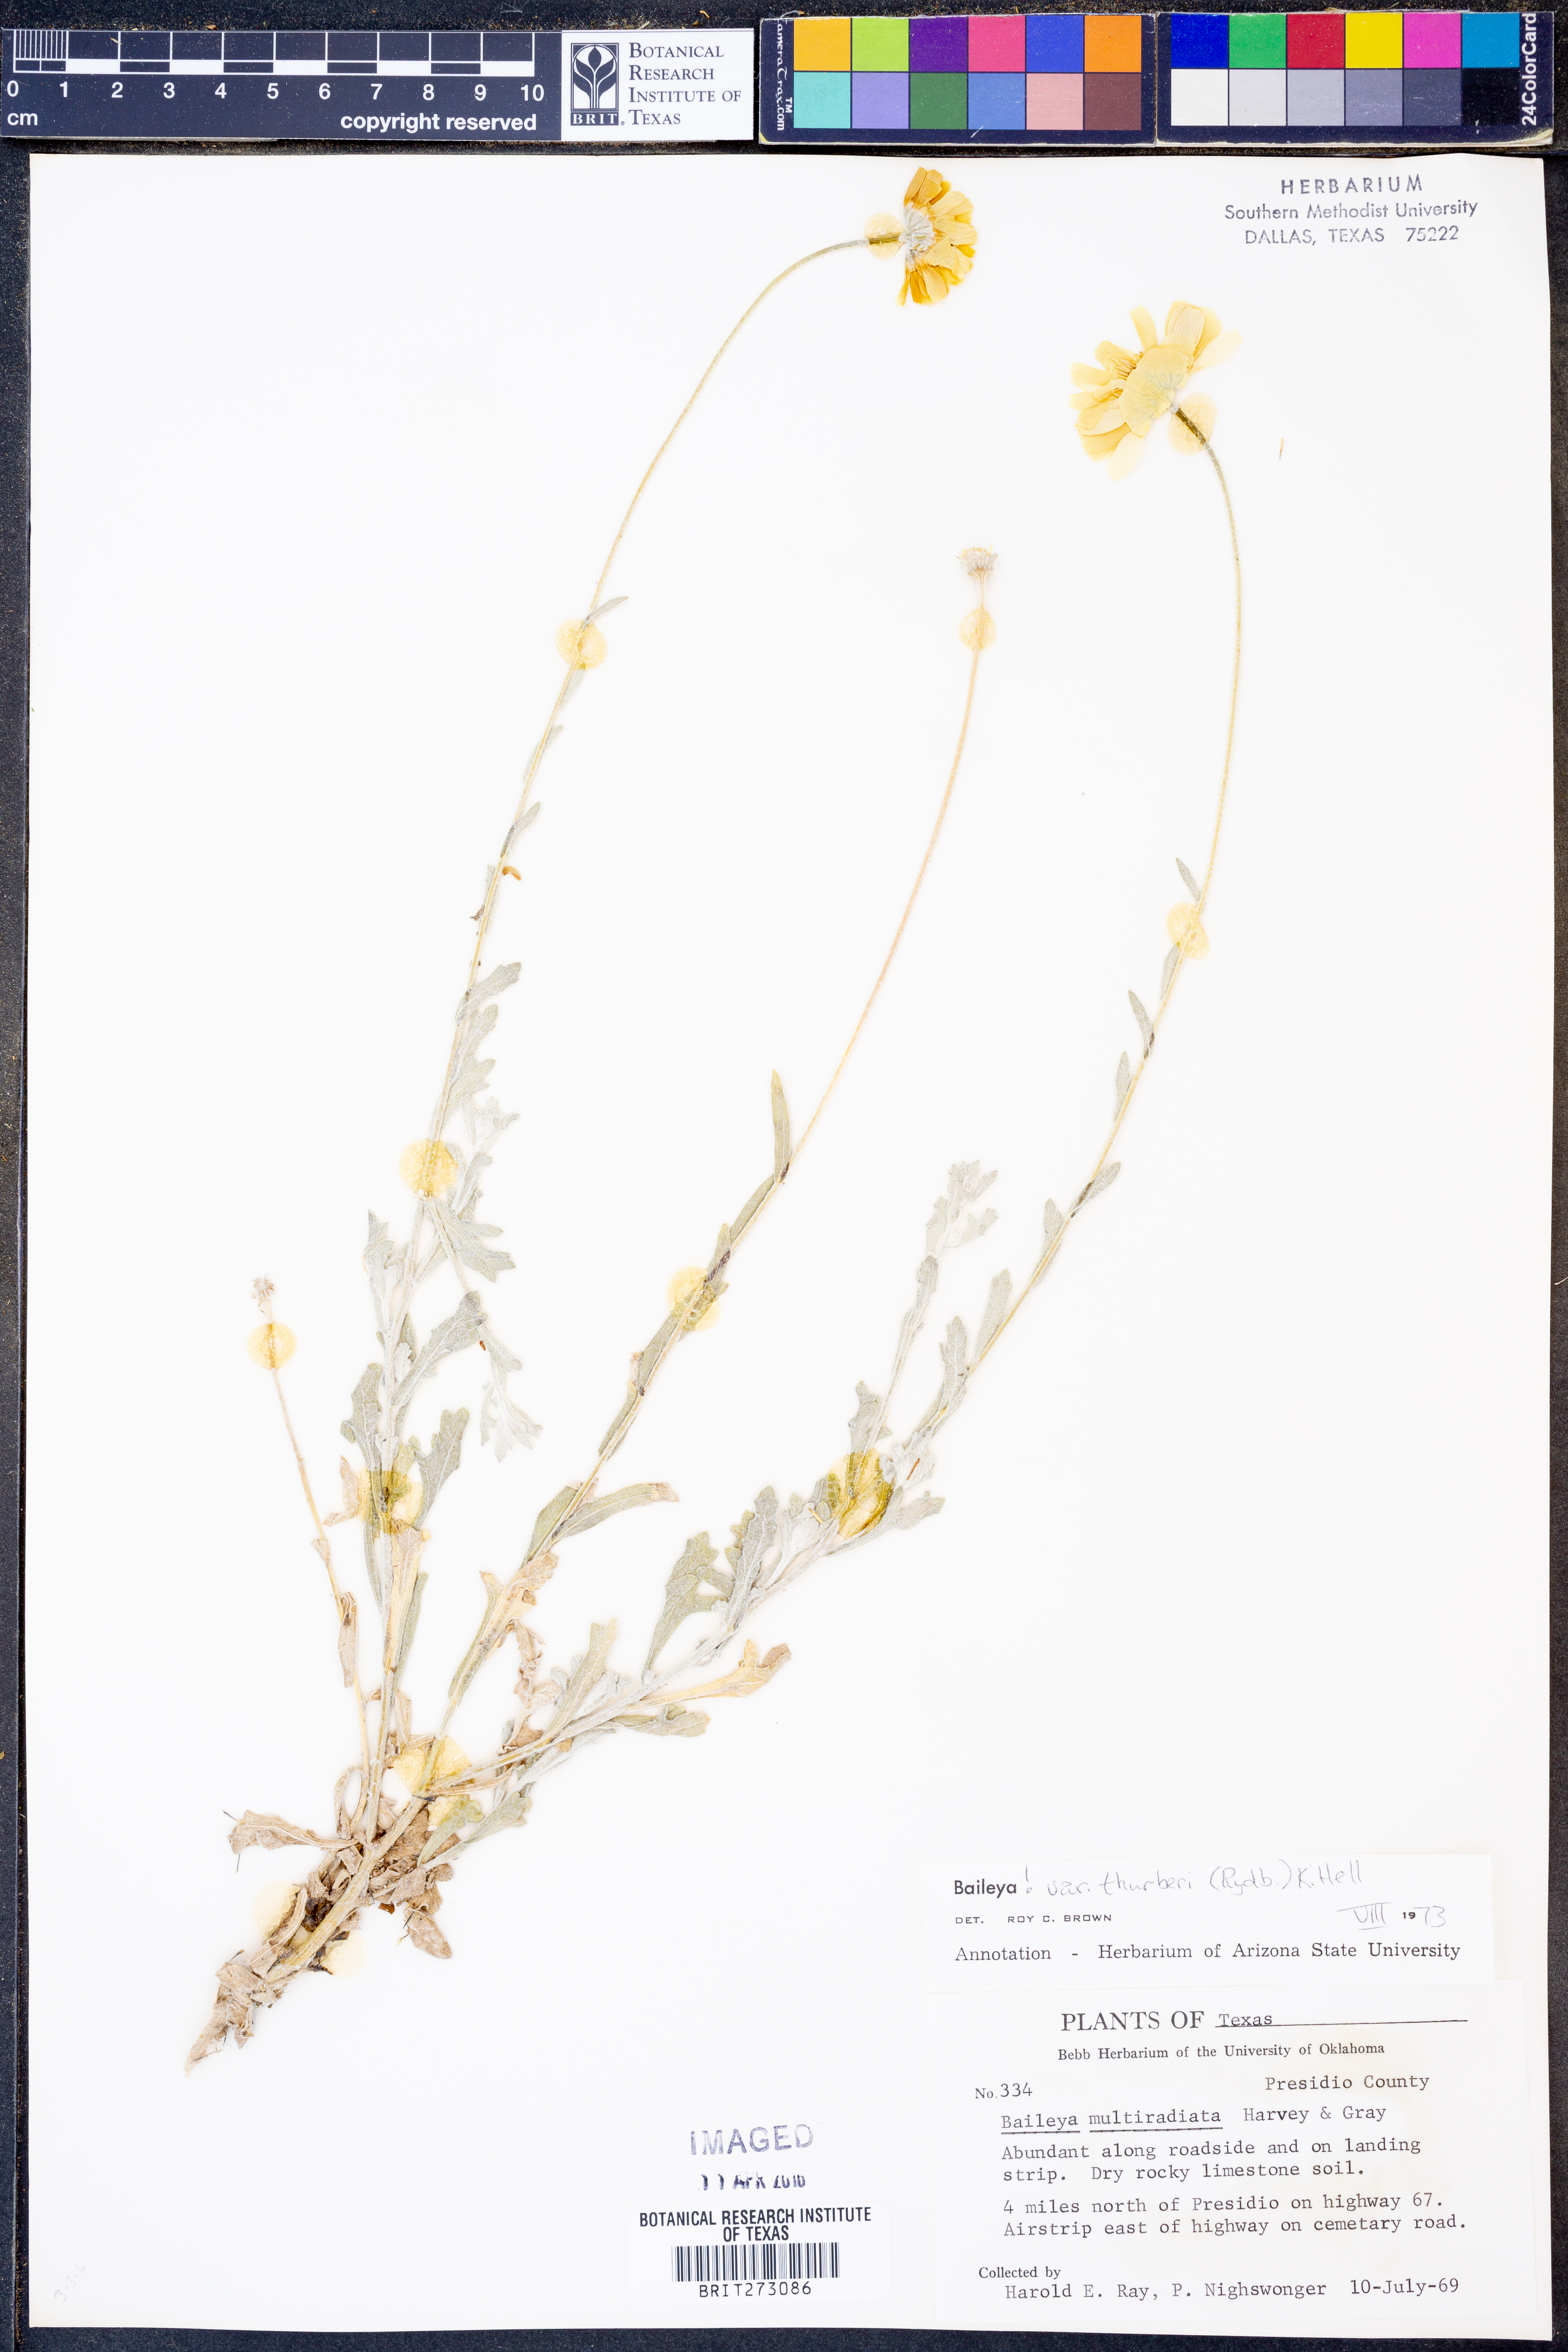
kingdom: Plantae
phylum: Tracheophyta
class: Magnoliopsida
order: Asterales
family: Asteraceae
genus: Baileya
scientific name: Baileya multiradiata
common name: Desert-marigold
